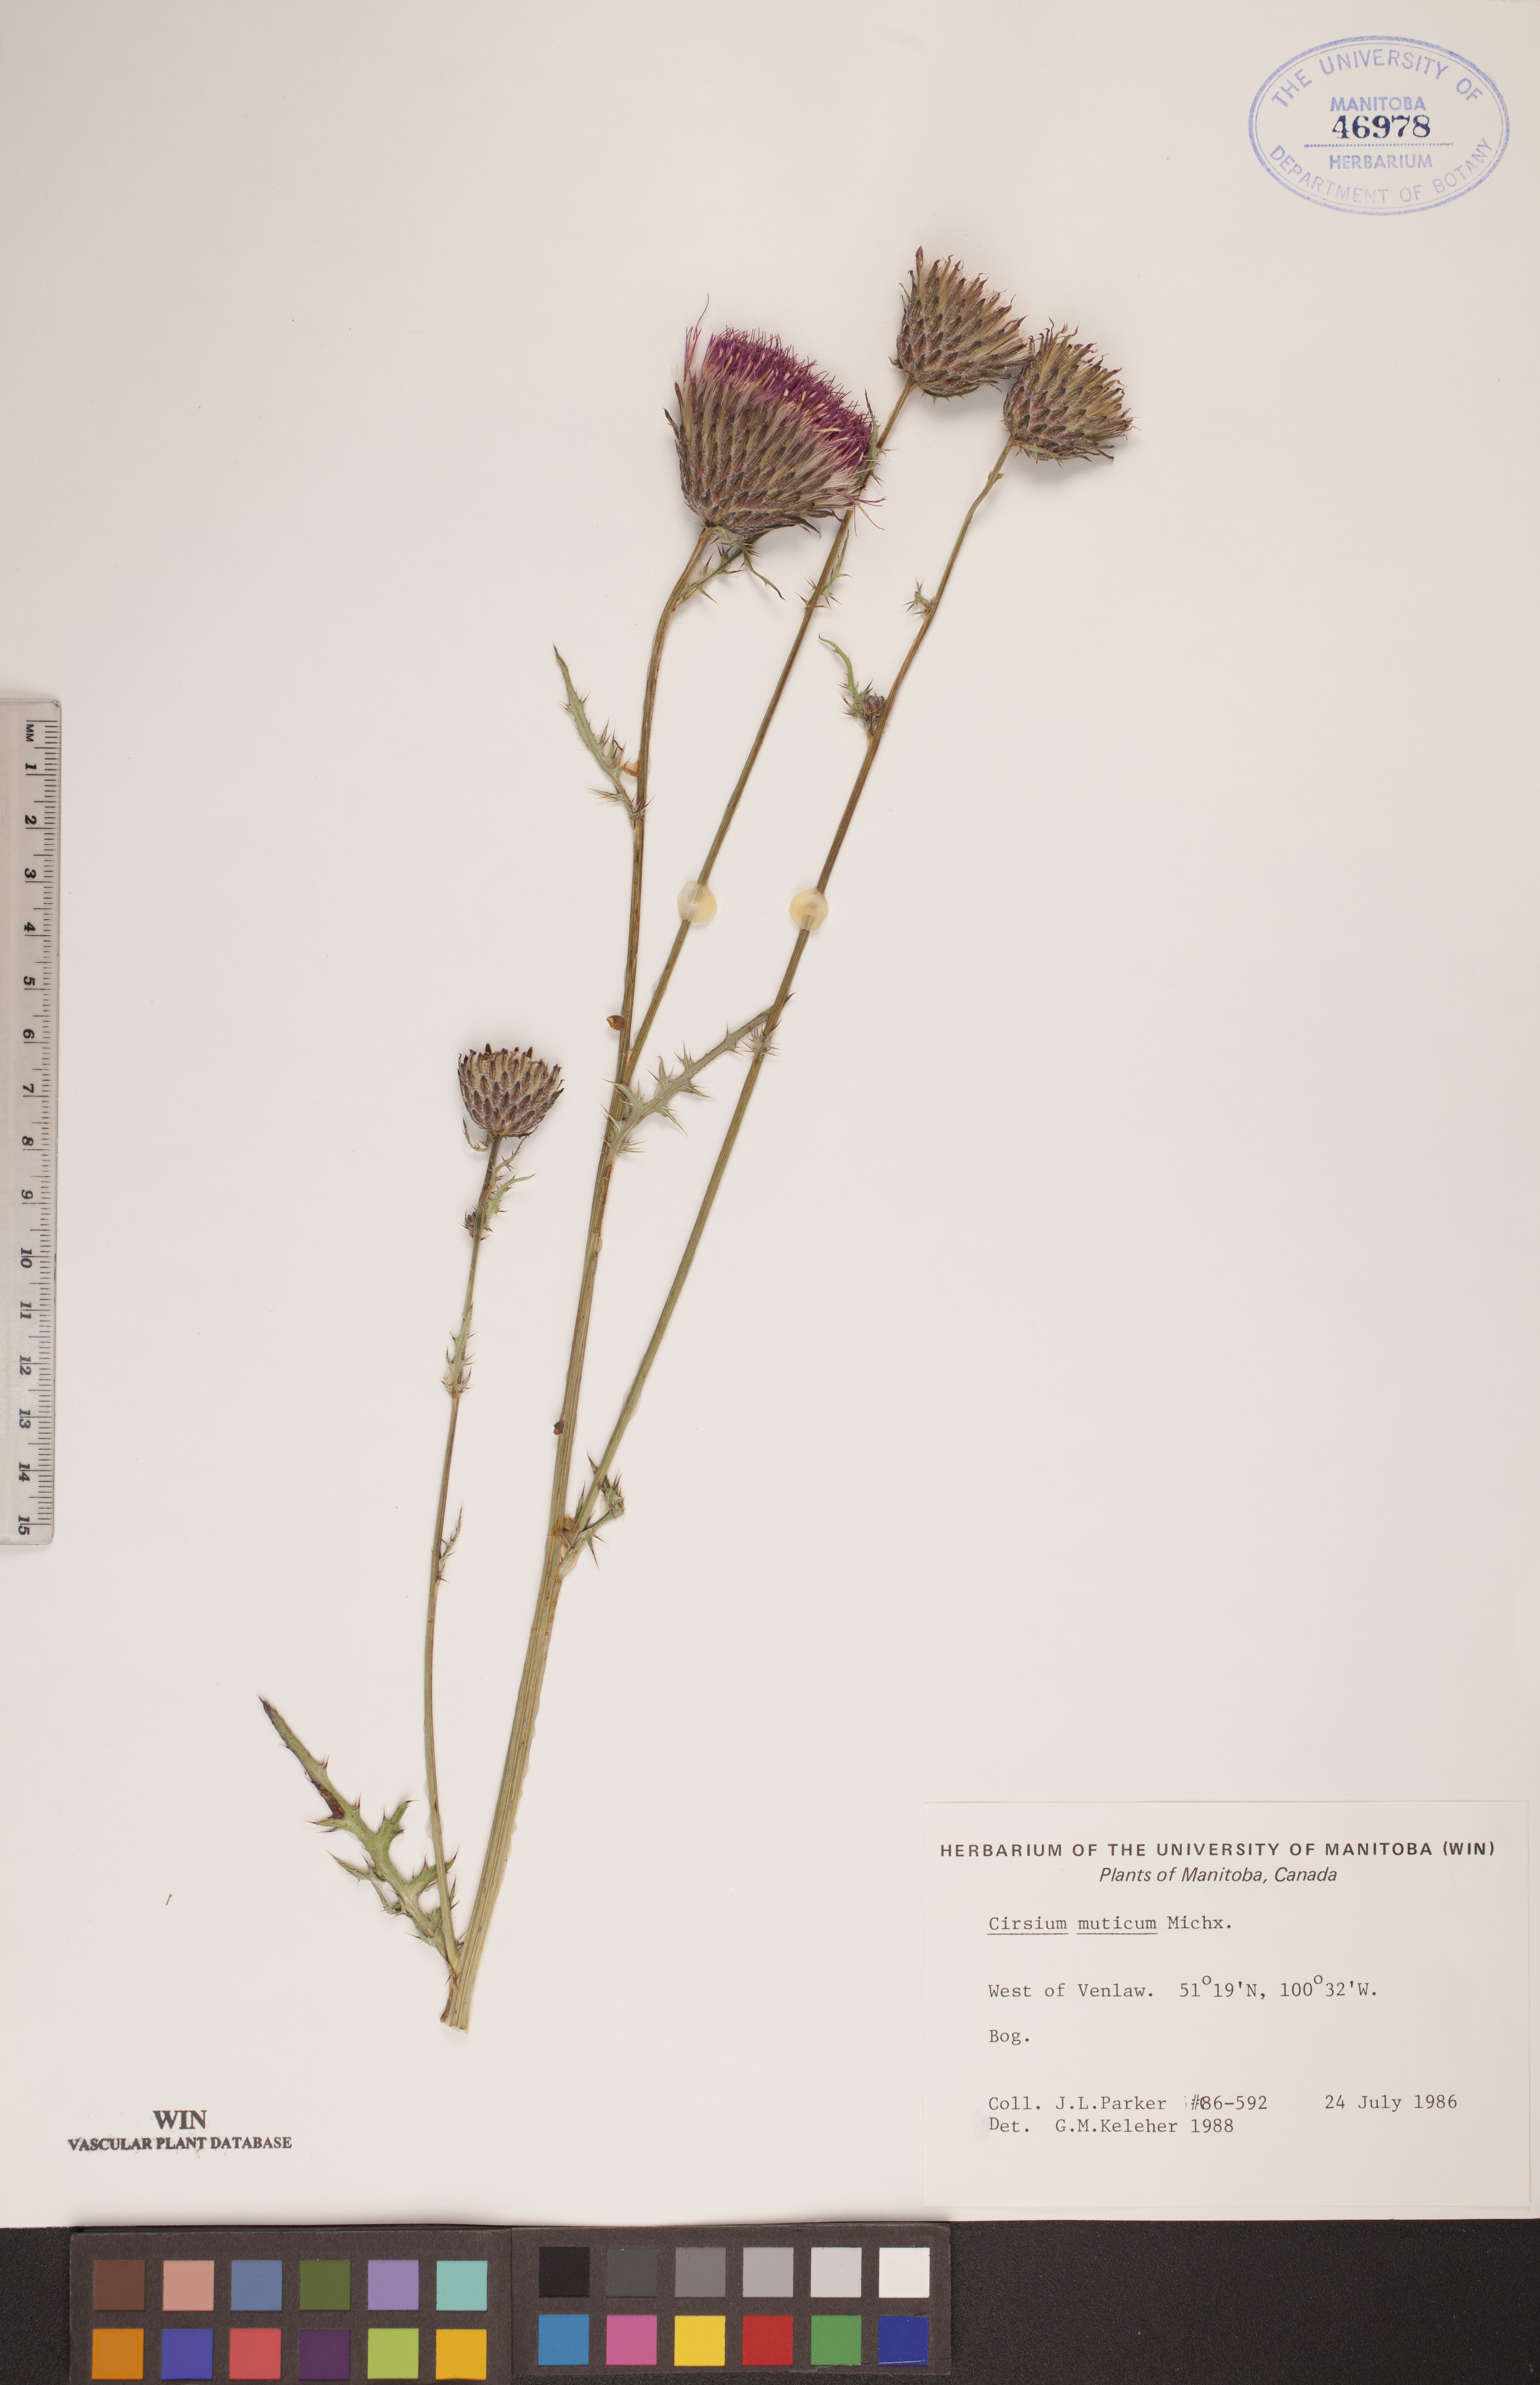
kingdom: Plantae
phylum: Tracheophyta
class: Magnoliopsida
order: Asterales
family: Asteraceae
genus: Cirsium
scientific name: Cirsium muticum
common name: Dunce-nettle
